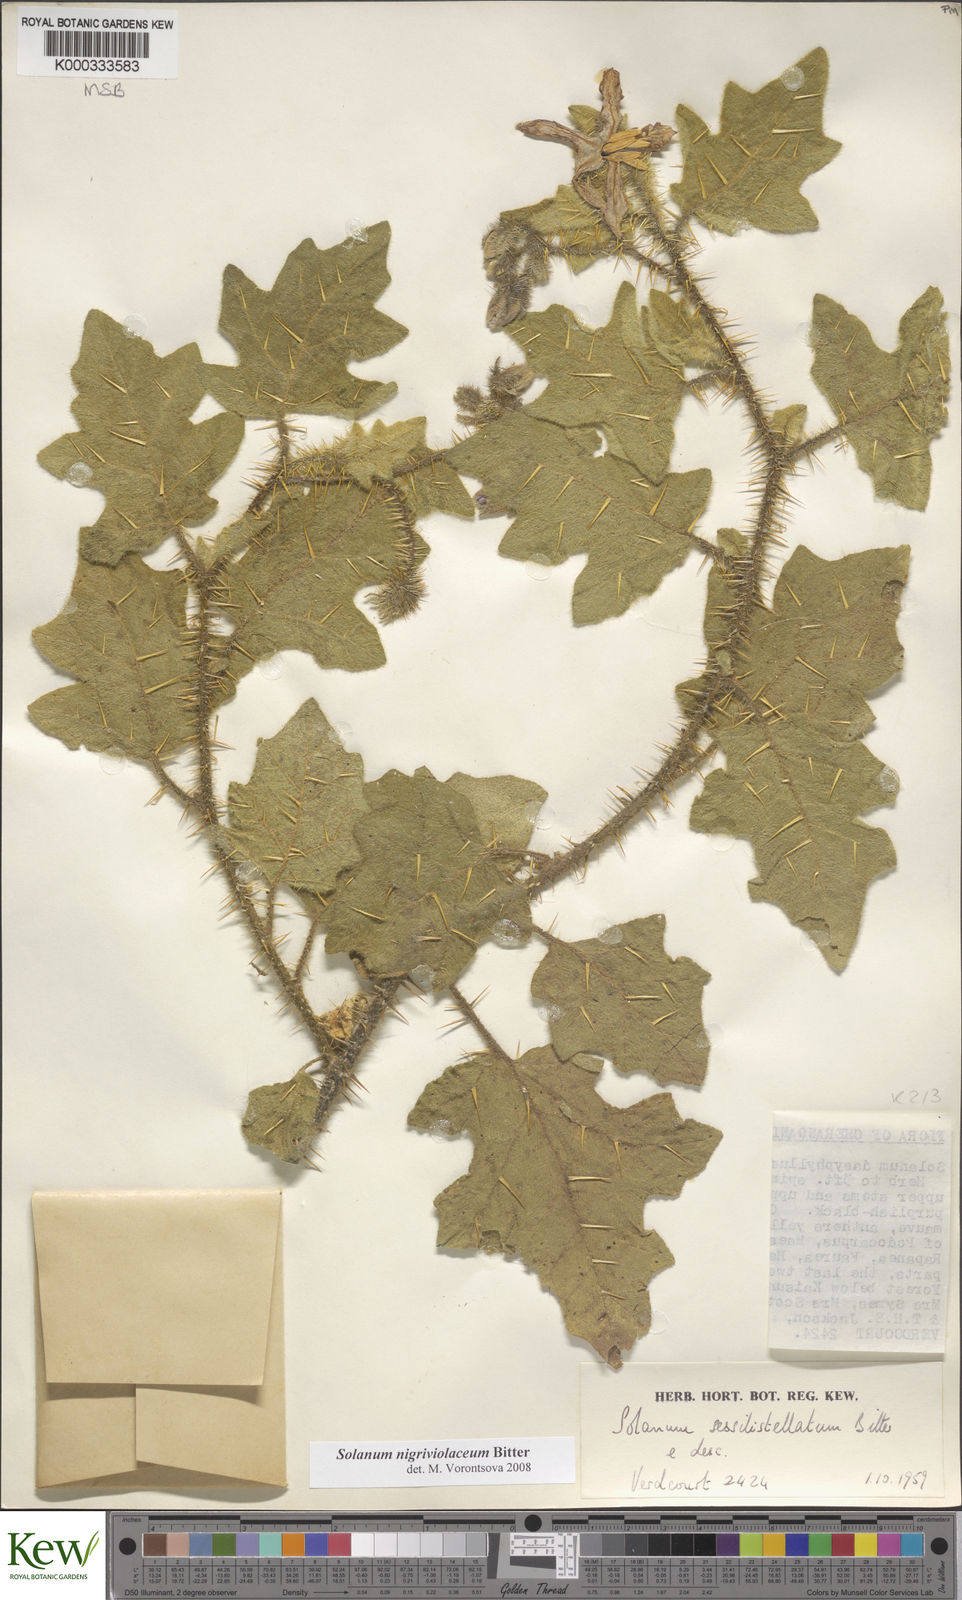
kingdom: Plantae
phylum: Tracheophyta
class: Magnoliopsida
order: Solanales
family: Solanaceae
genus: Solanum
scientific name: Solanum nigriviolaceum
